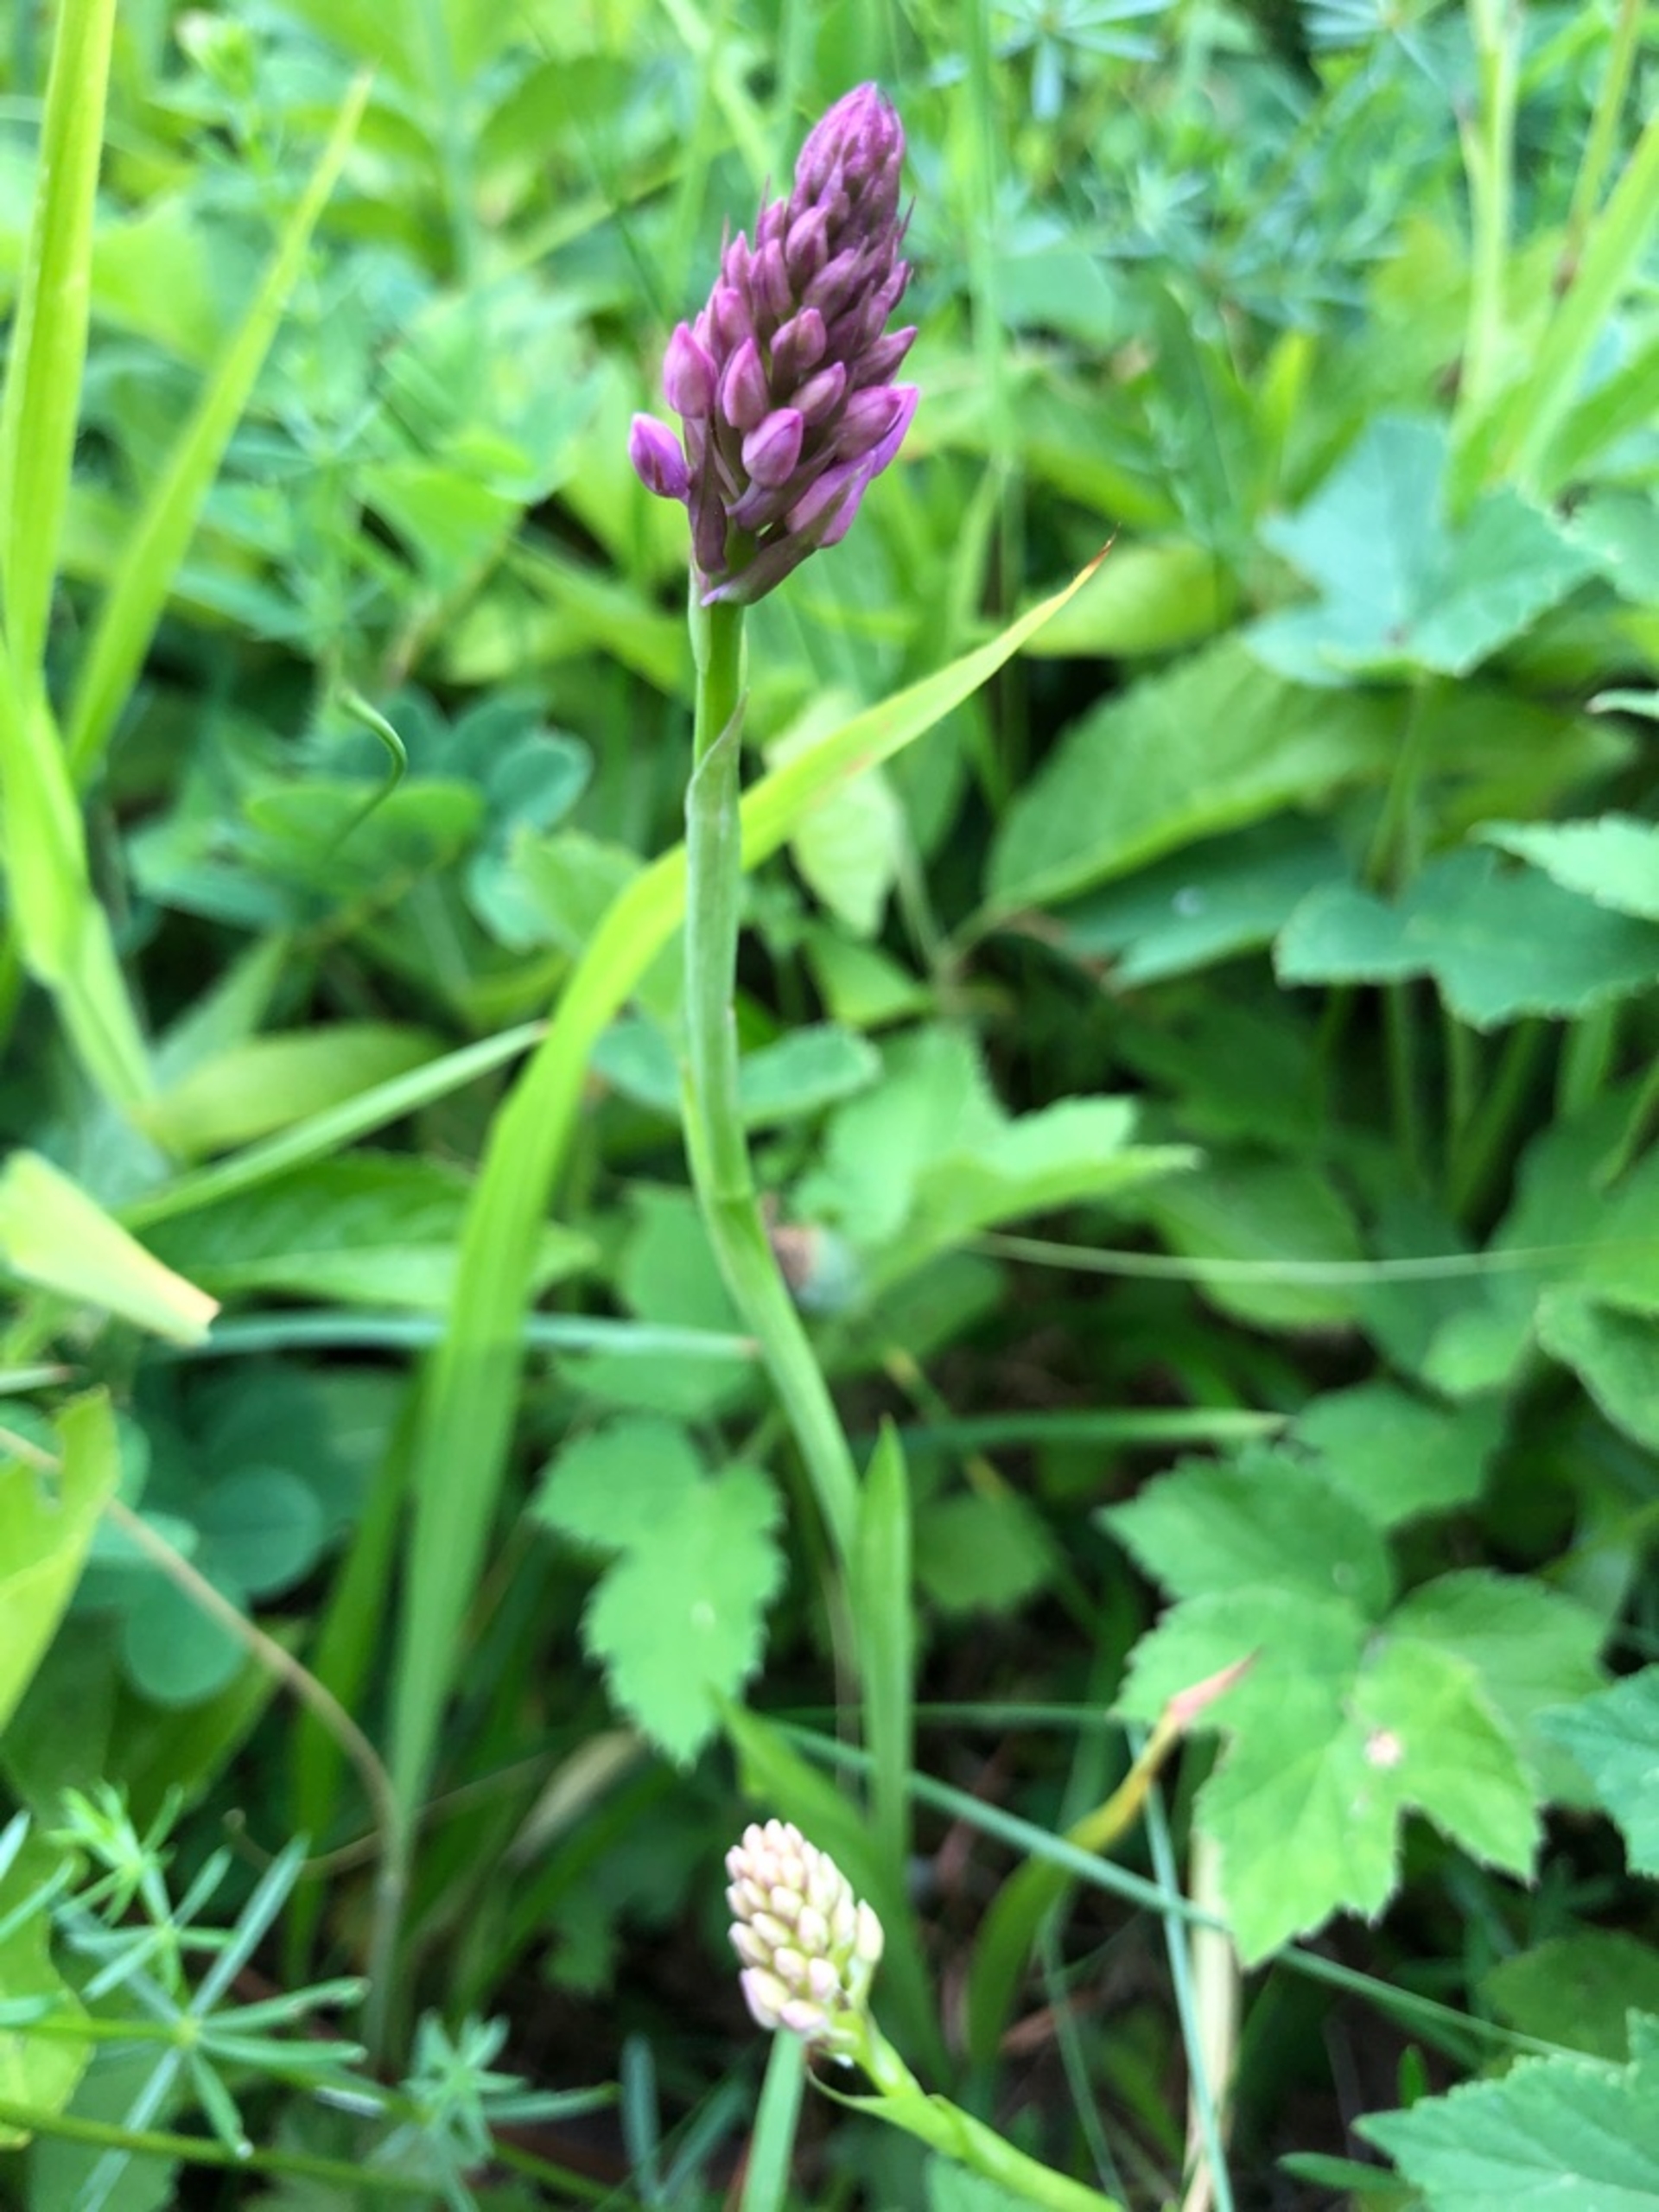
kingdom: Plantae
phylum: Tracheophyta
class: Liliopsida
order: Asparagales
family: Orchidaceae
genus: Anacamptis
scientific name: Anacamptis pyramidalis
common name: Horndrager
